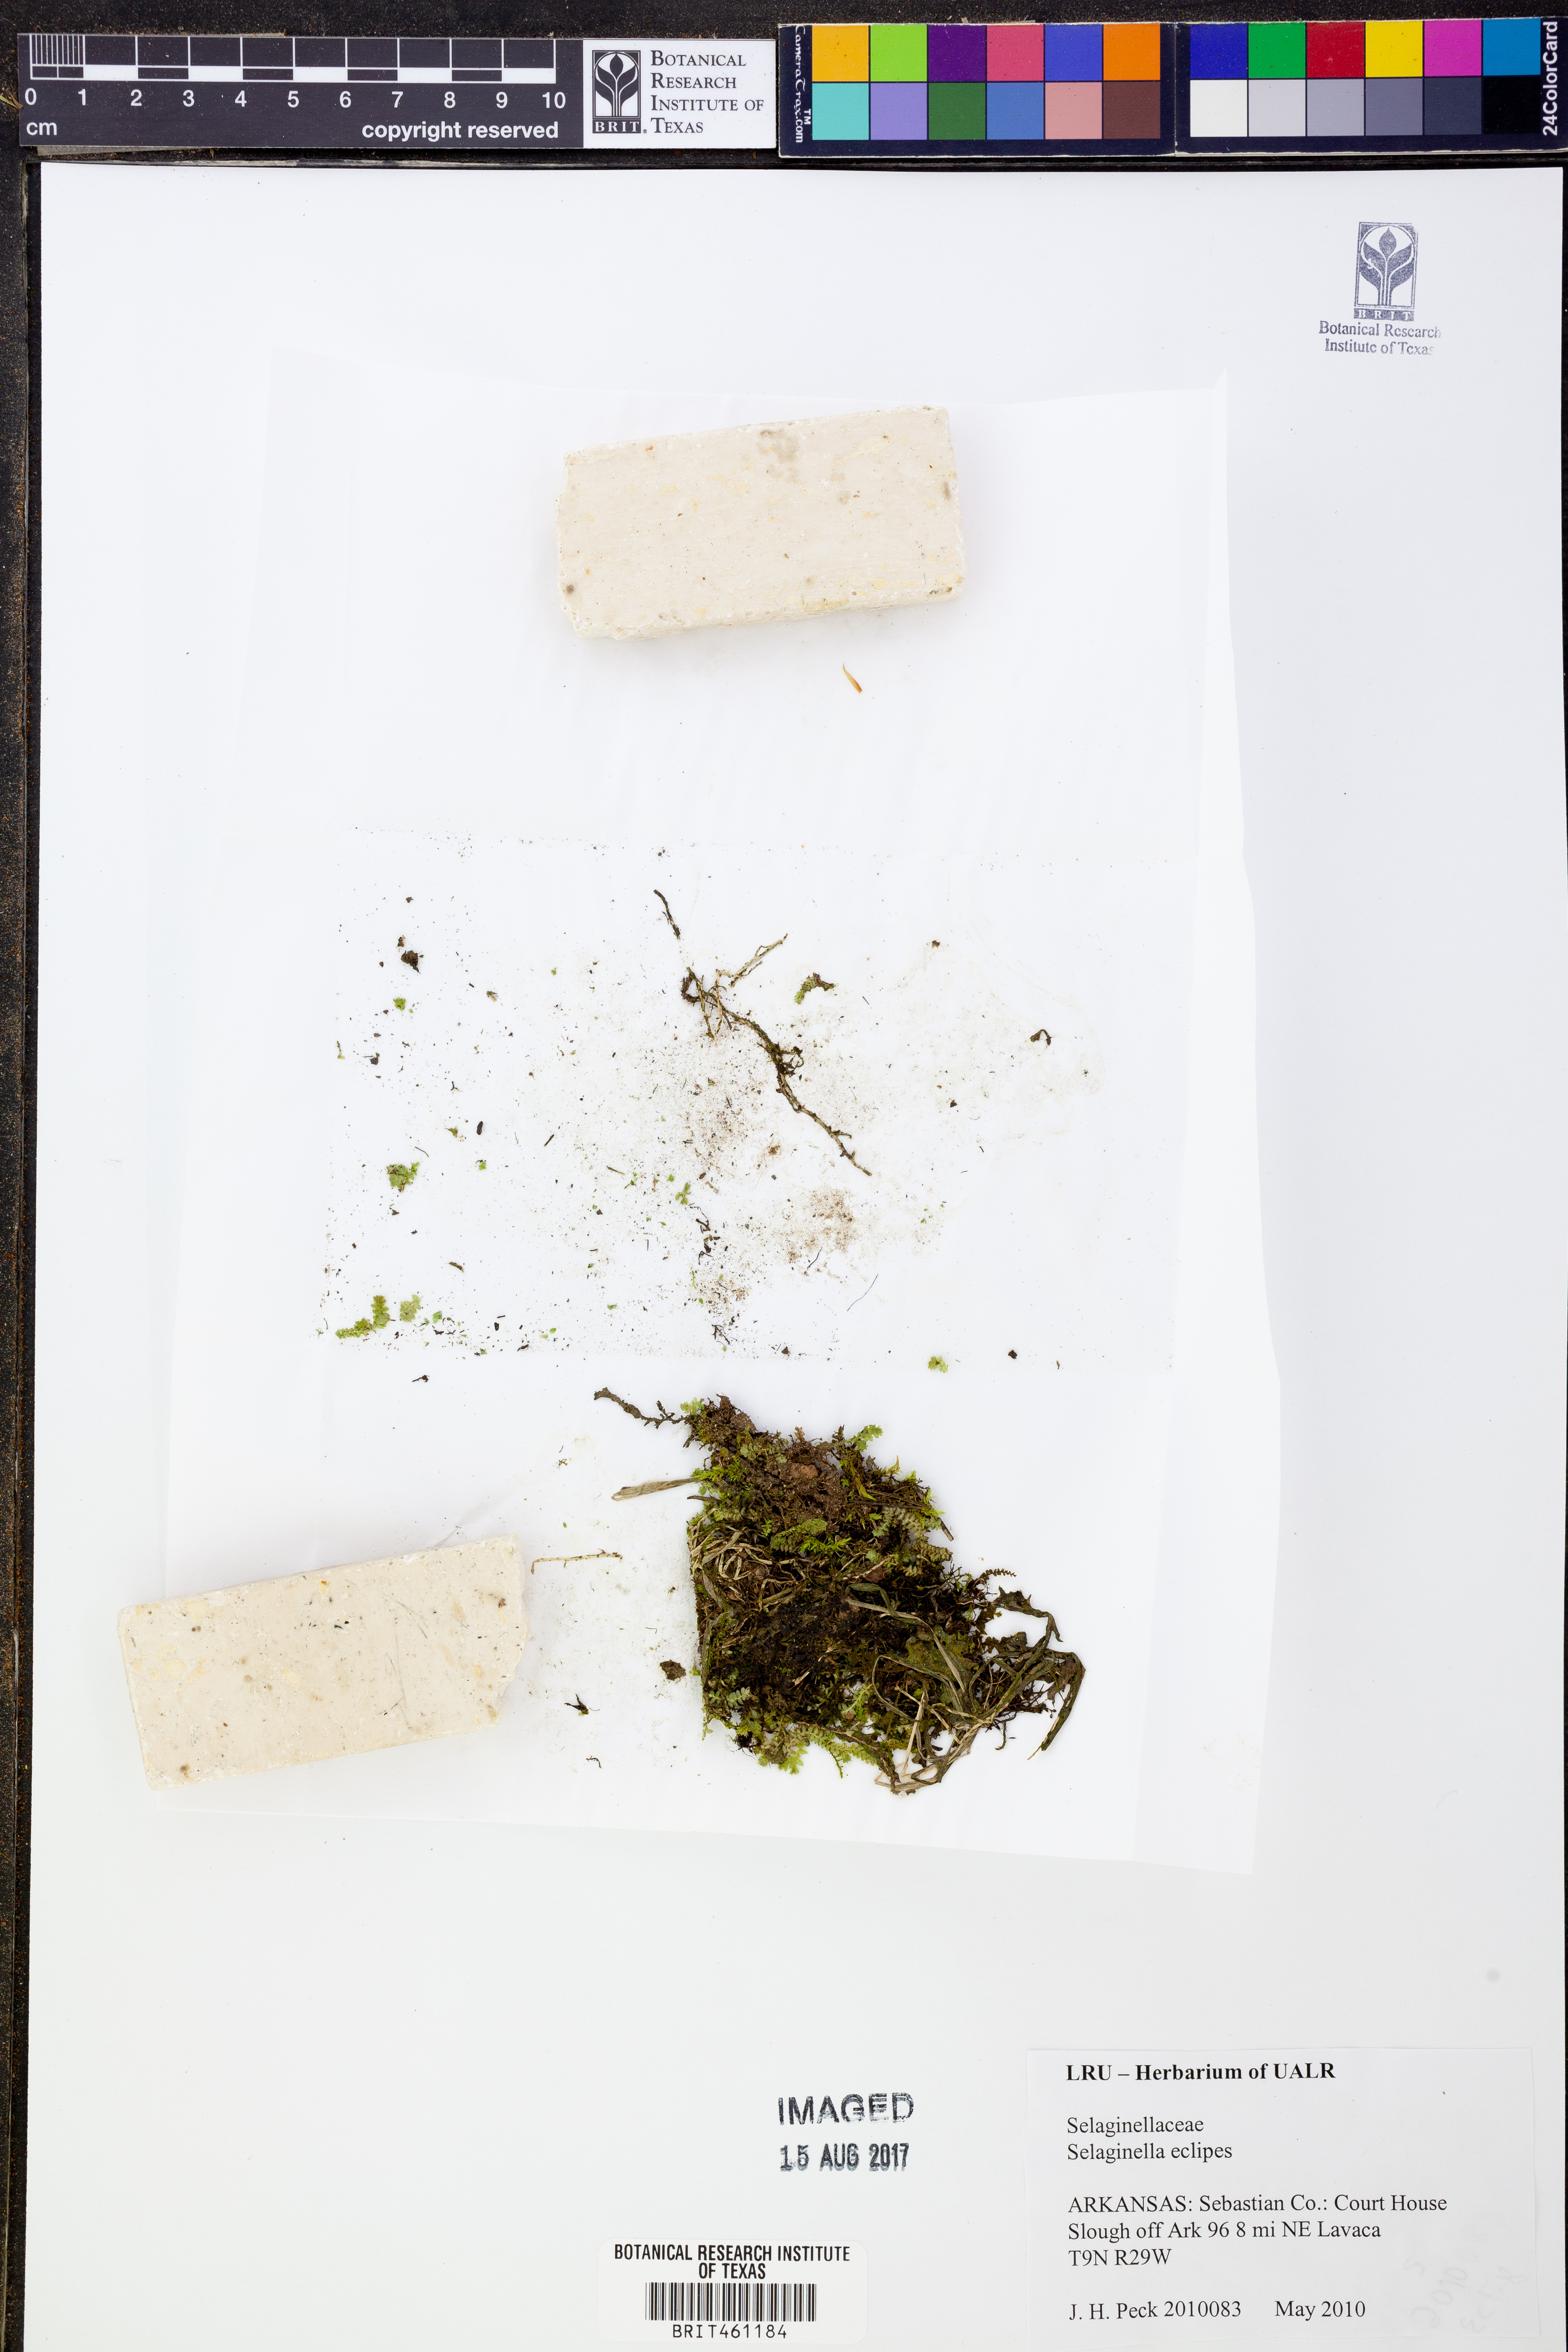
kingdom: Plantae
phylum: Tracheophyta
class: Lycopodiopsida
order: Selaginellales
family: Selaginellaceae
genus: Selaginella
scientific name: Selaginella eclipes
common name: Buck's meadow spikemoss
